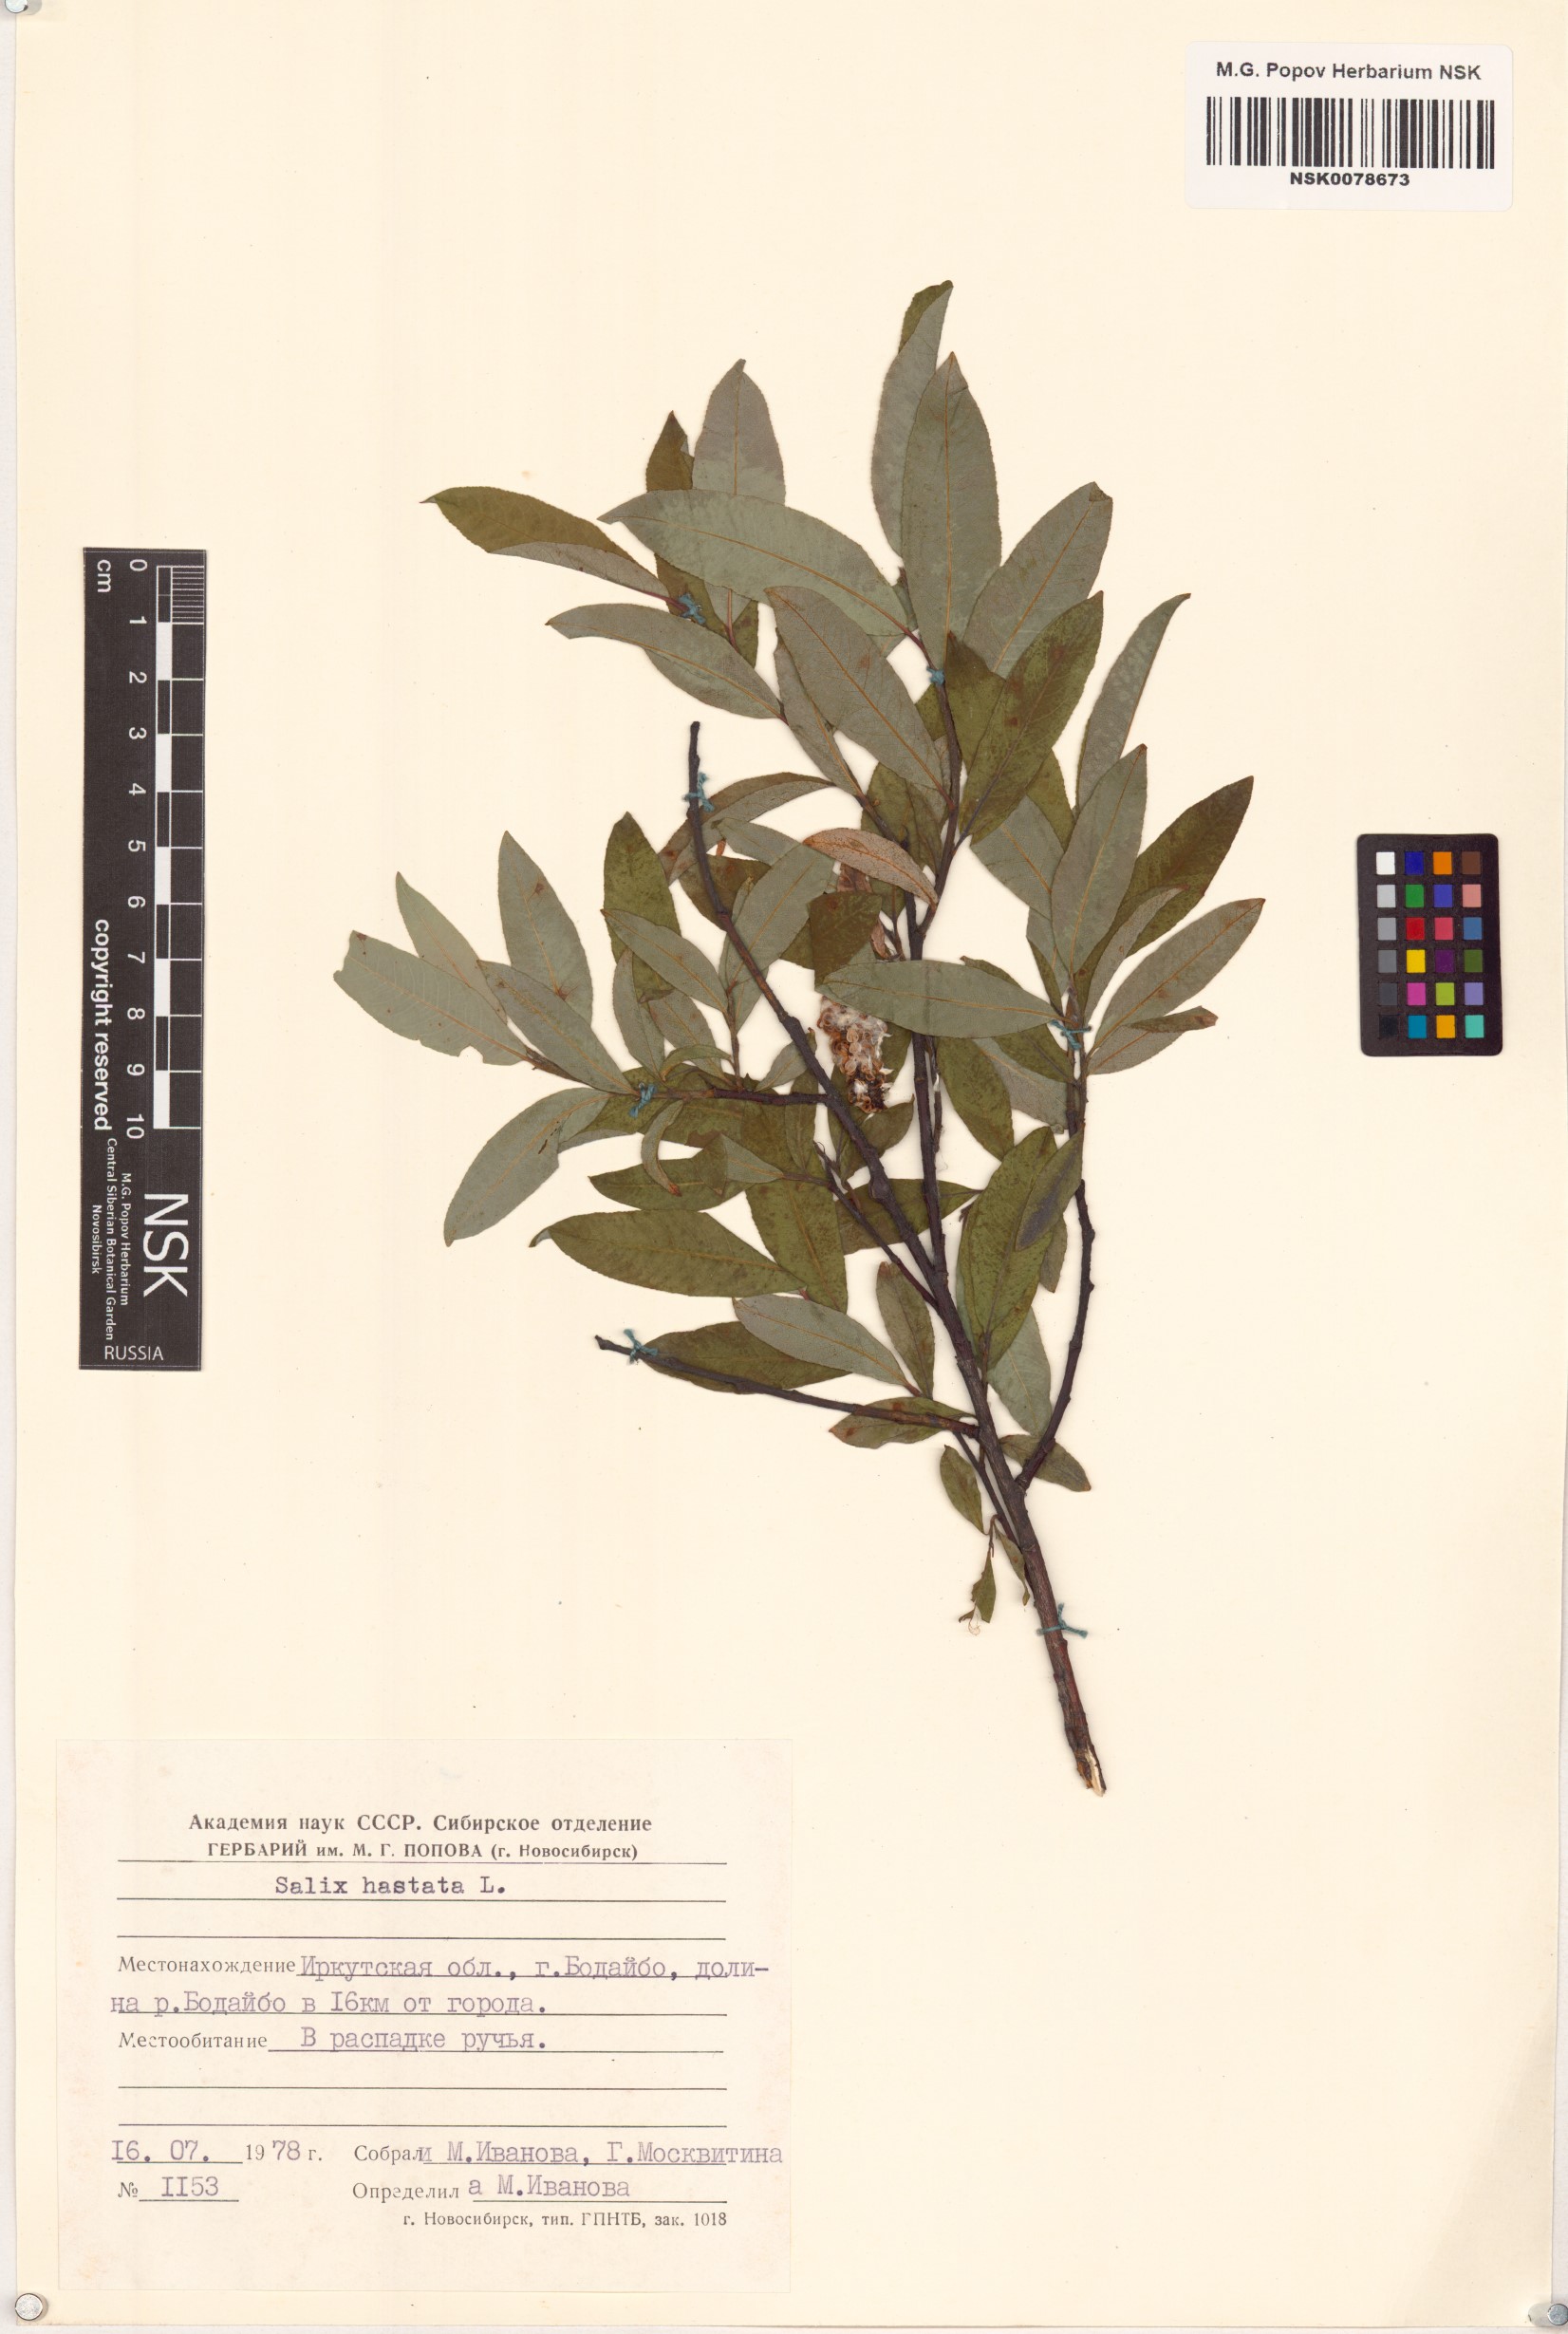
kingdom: Plantae
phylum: Tracheophyta
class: Magnoliopsida
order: Malpighiales
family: Salicaceae
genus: Salix
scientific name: Salix hastata
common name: Halberd willow
